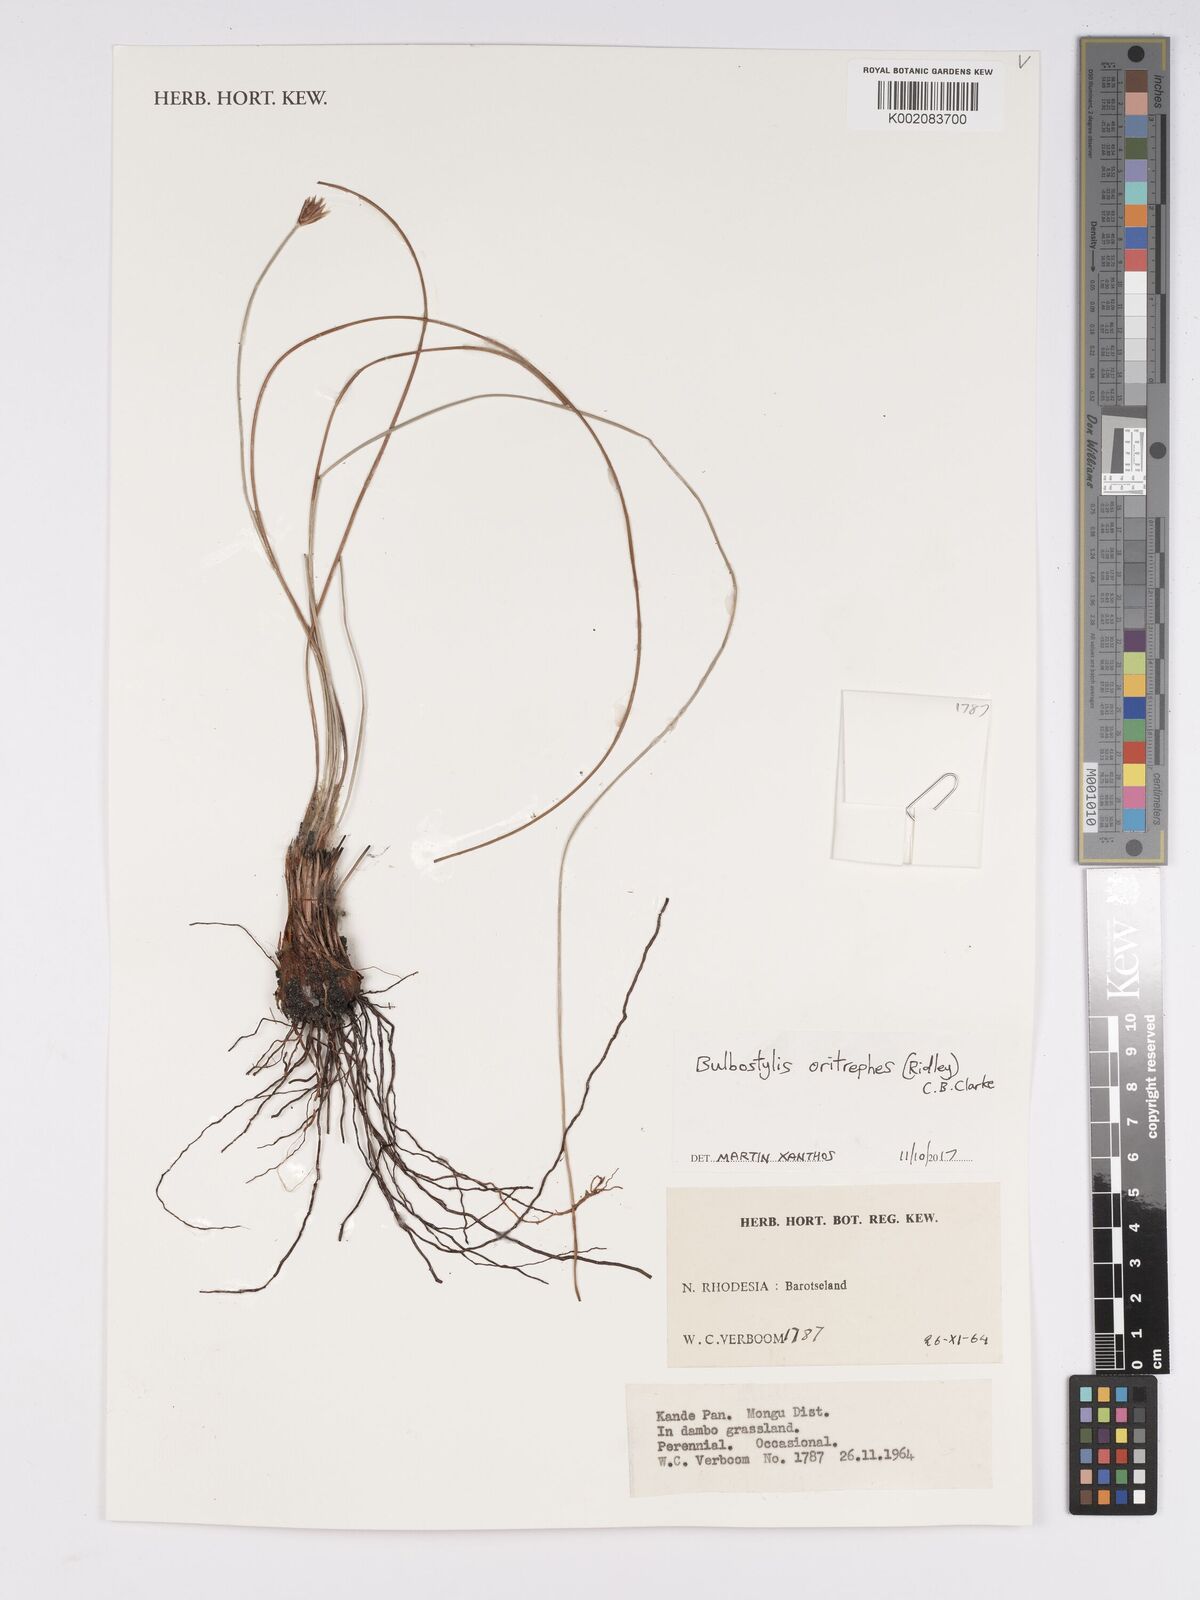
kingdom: Plantae
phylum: Tracheophyta
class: Liliopsida
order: Poales
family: Cyperaceae
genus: Bulbostylis
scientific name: Bulbostylis oritrephes
